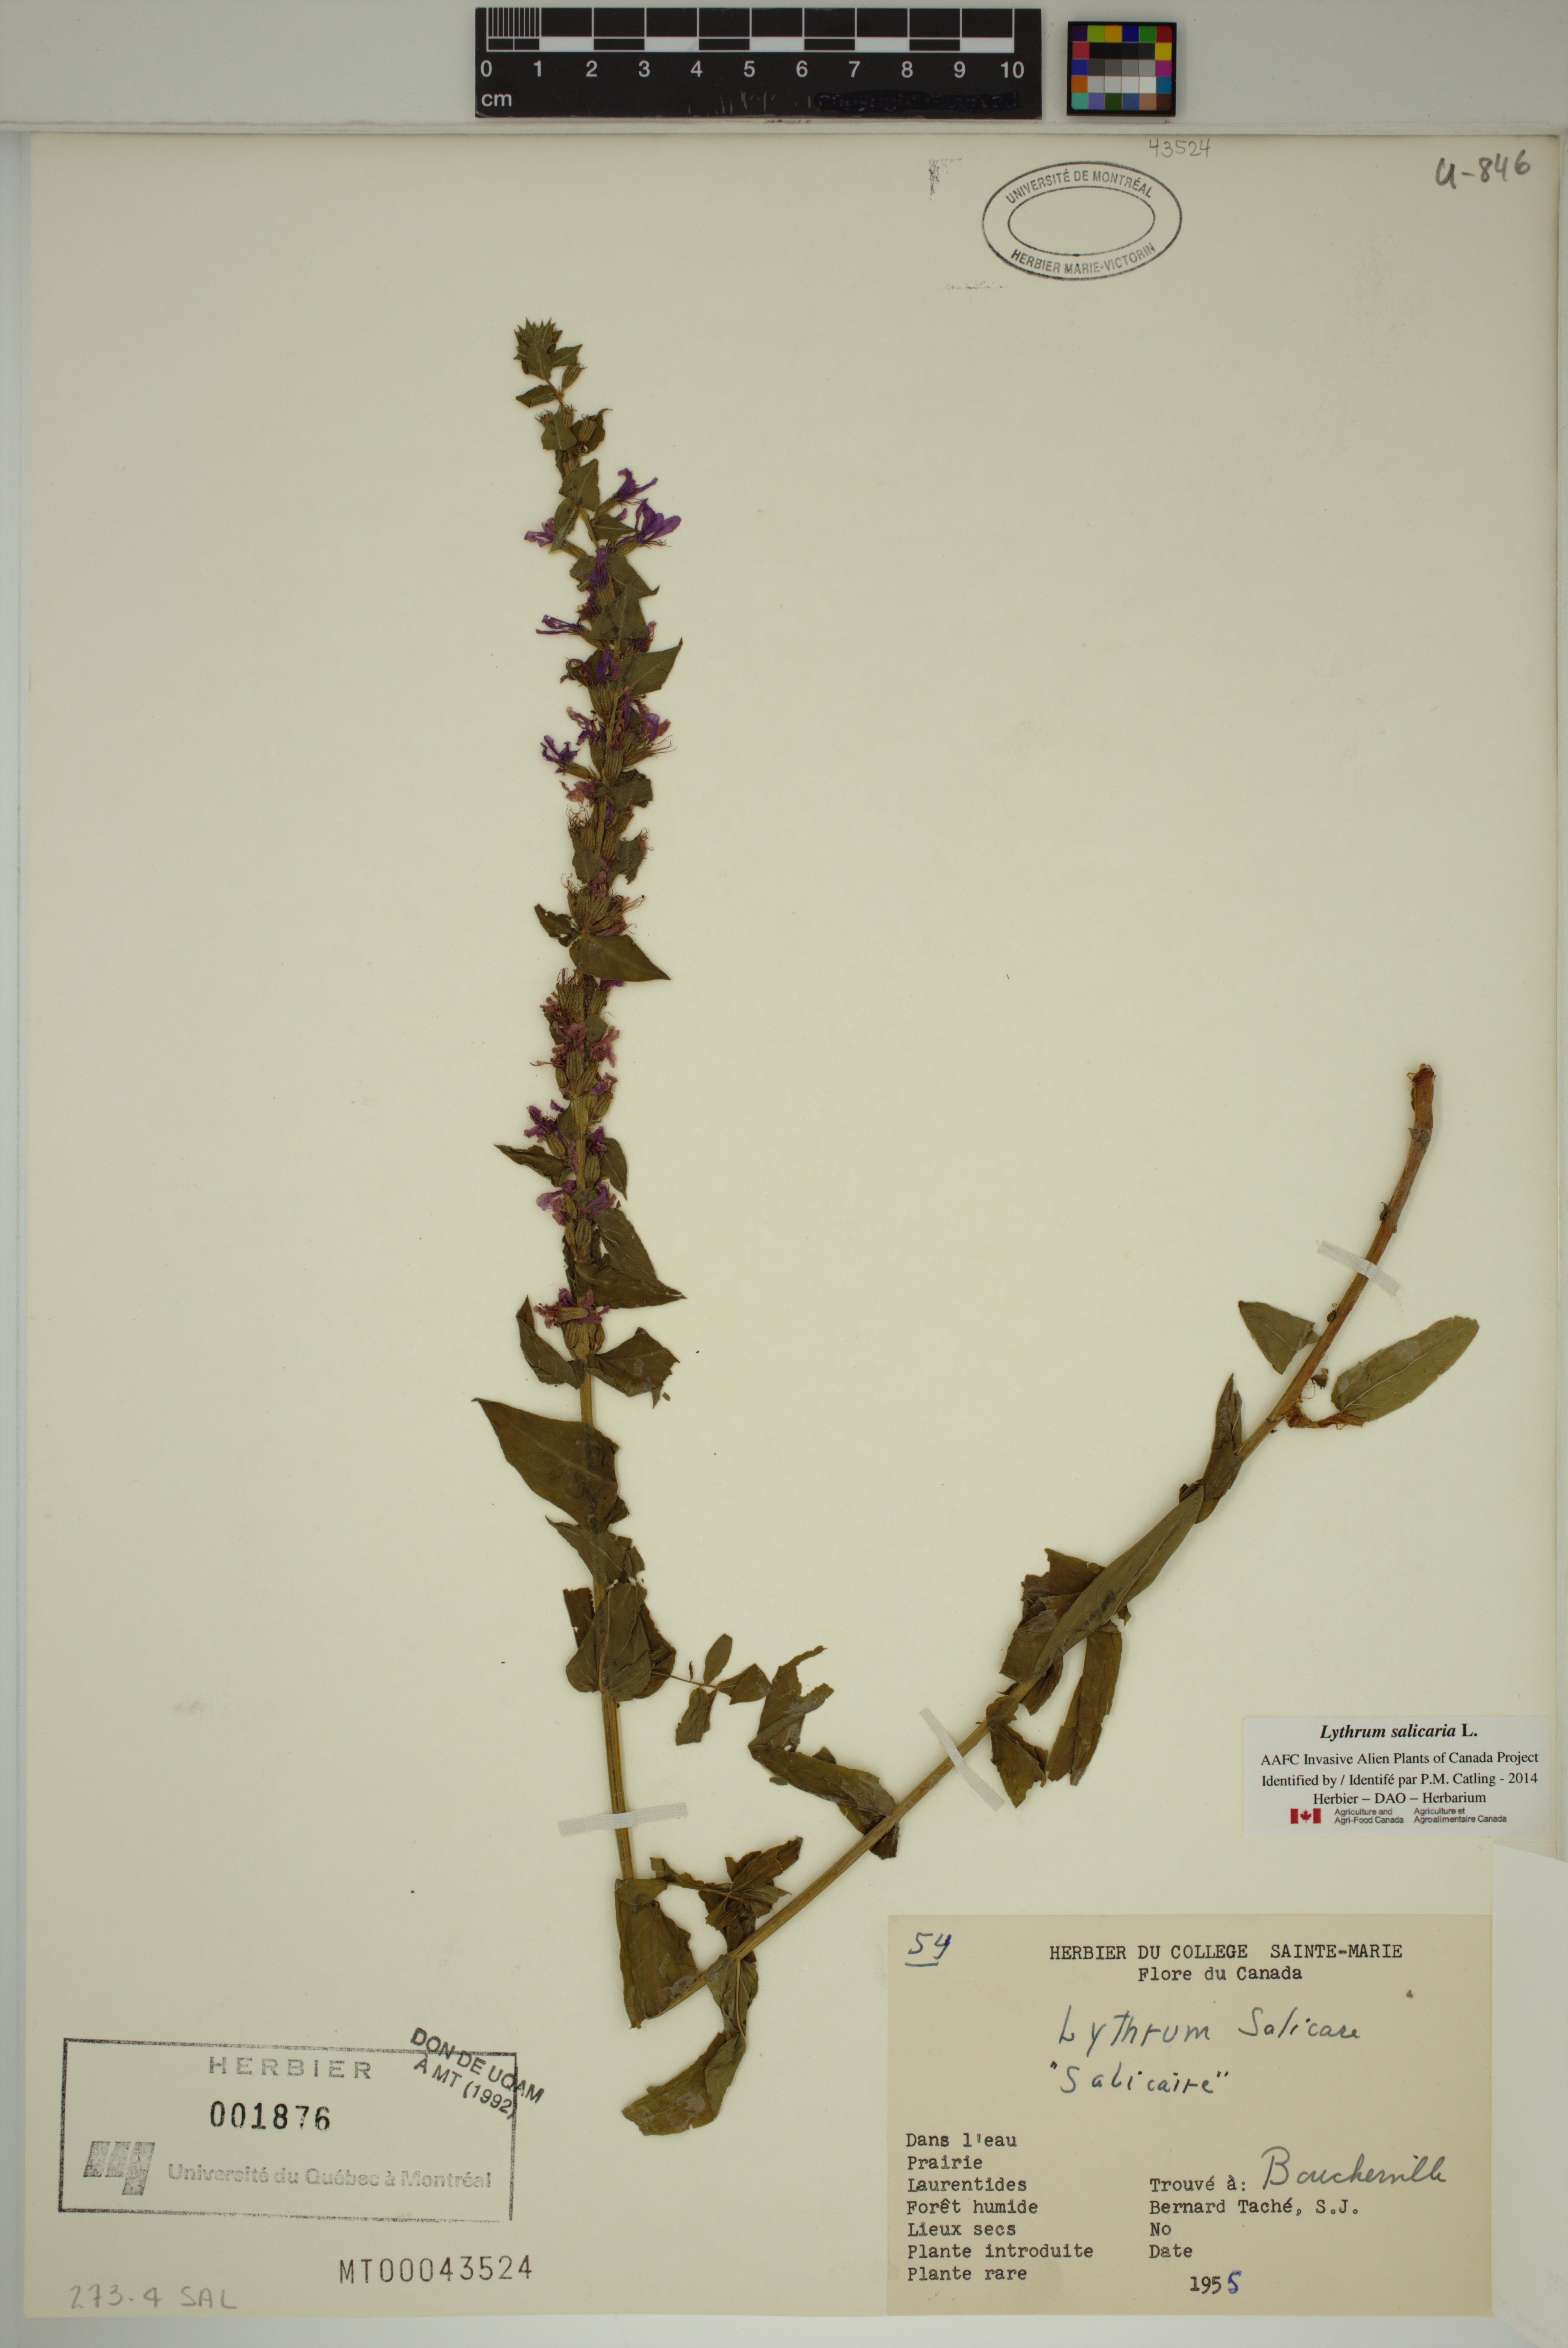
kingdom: Plantae
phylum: Tracheophyta
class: Magnoliopsida
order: Myrtales
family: Lythraceae
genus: Lythrum
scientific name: Lythrum salicaria
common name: Purple loosestrife
